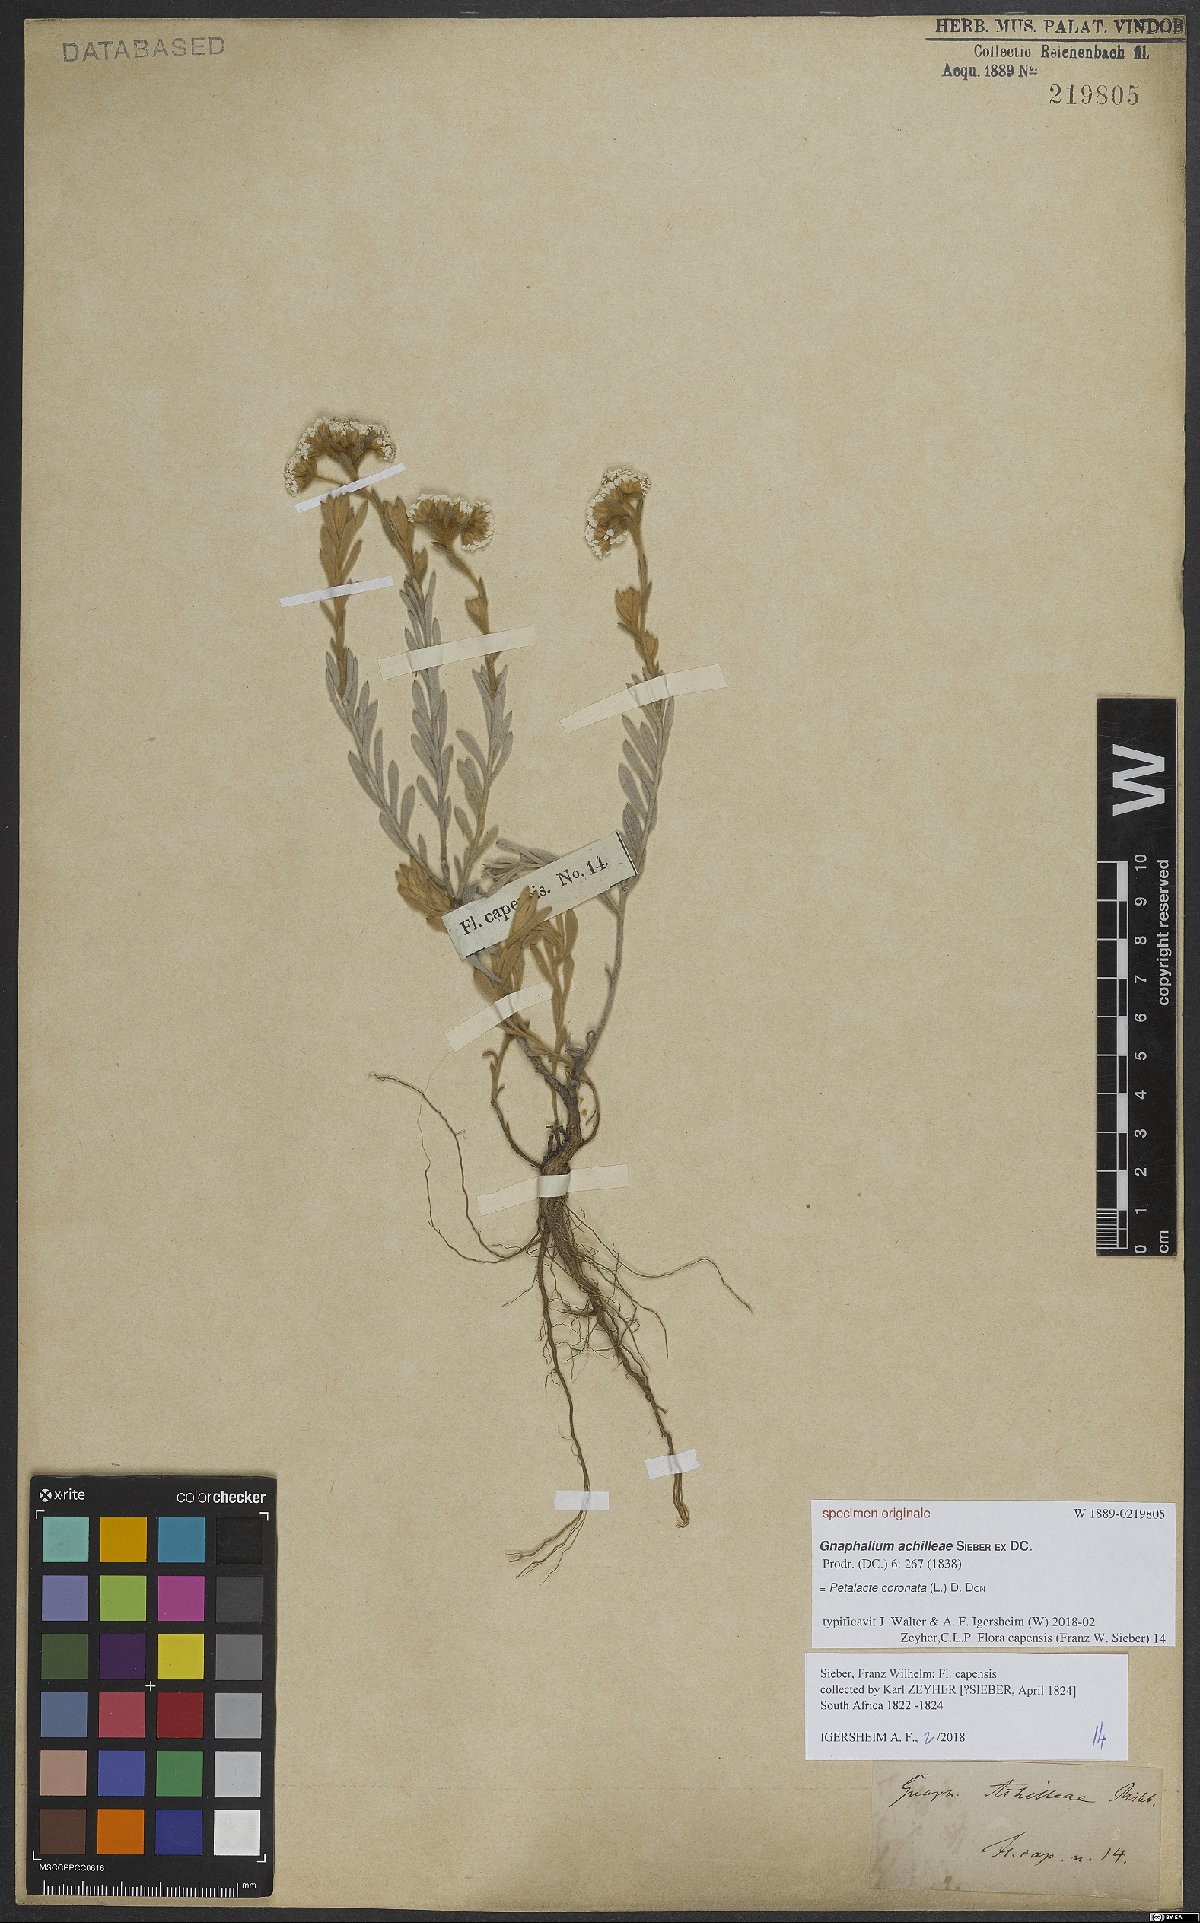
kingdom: Plantae
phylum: Tracheophyta
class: Magnoliopsida
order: Asterales
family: Asteraceae
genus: Petalacte
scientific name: Petalacte coronata
